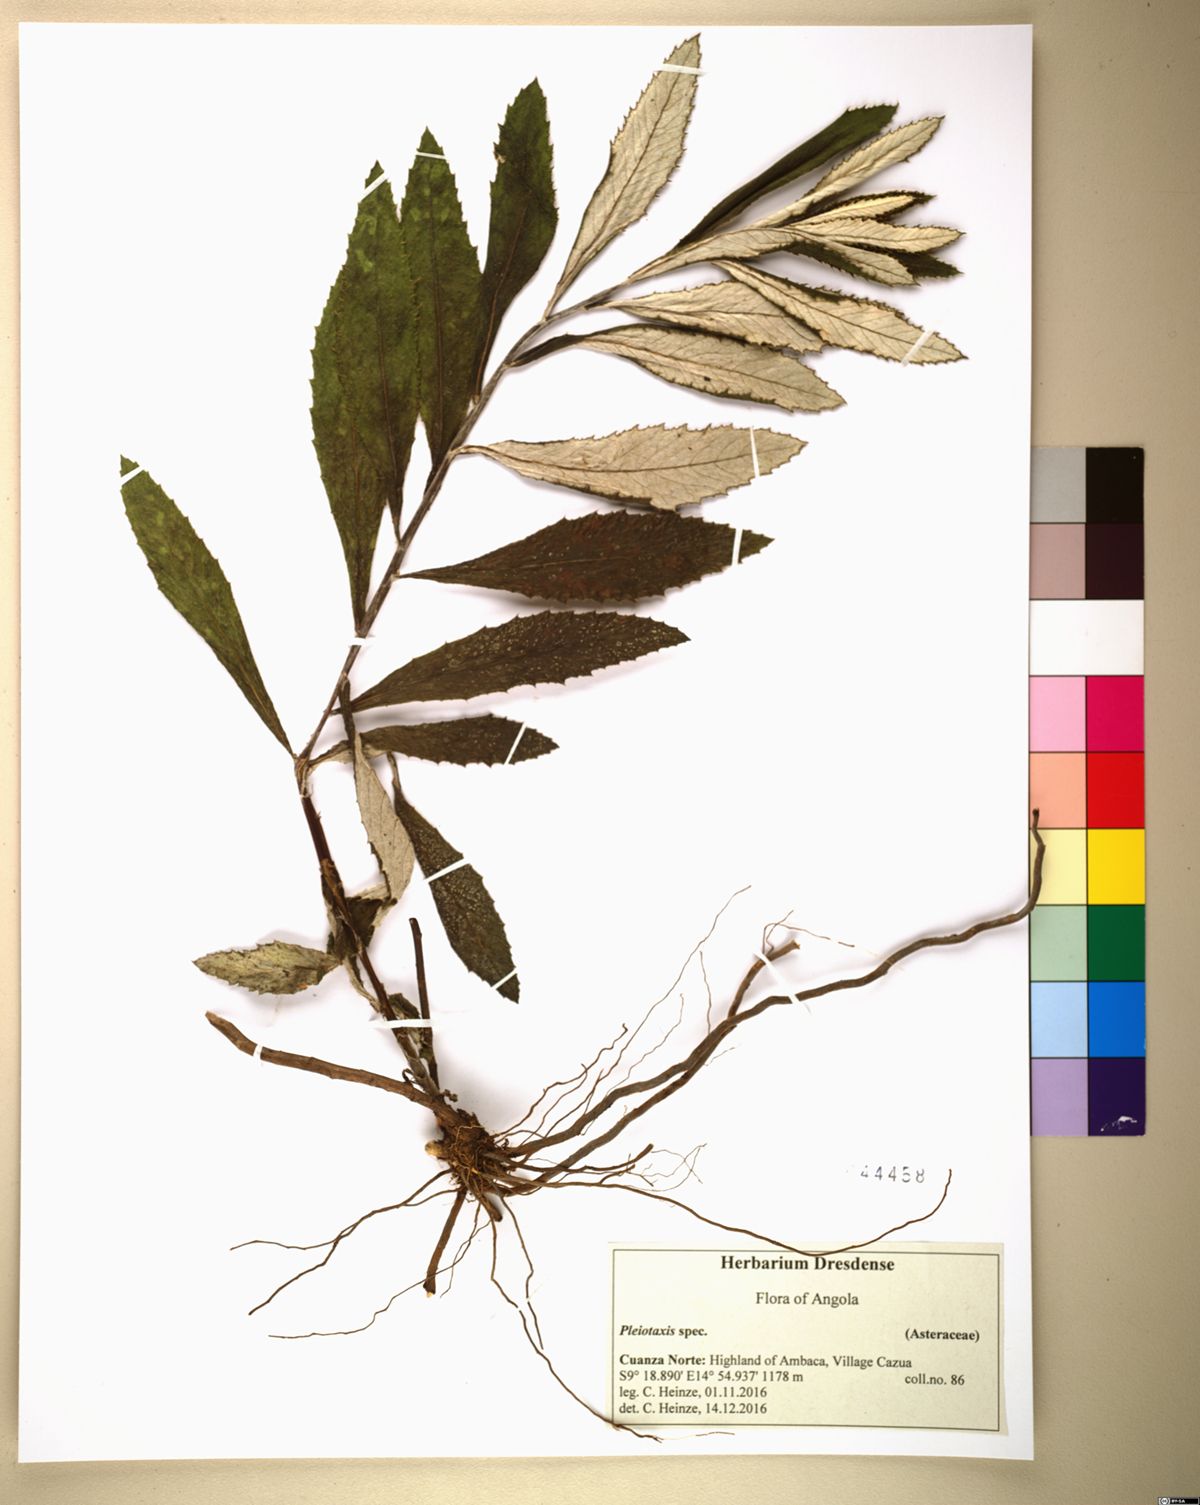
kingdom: Plantae
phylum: Tracheophyta
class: Magnoliopsida
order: Asterales
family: Asteraceae
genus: Berkheya
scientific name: Berkheya angolensis
